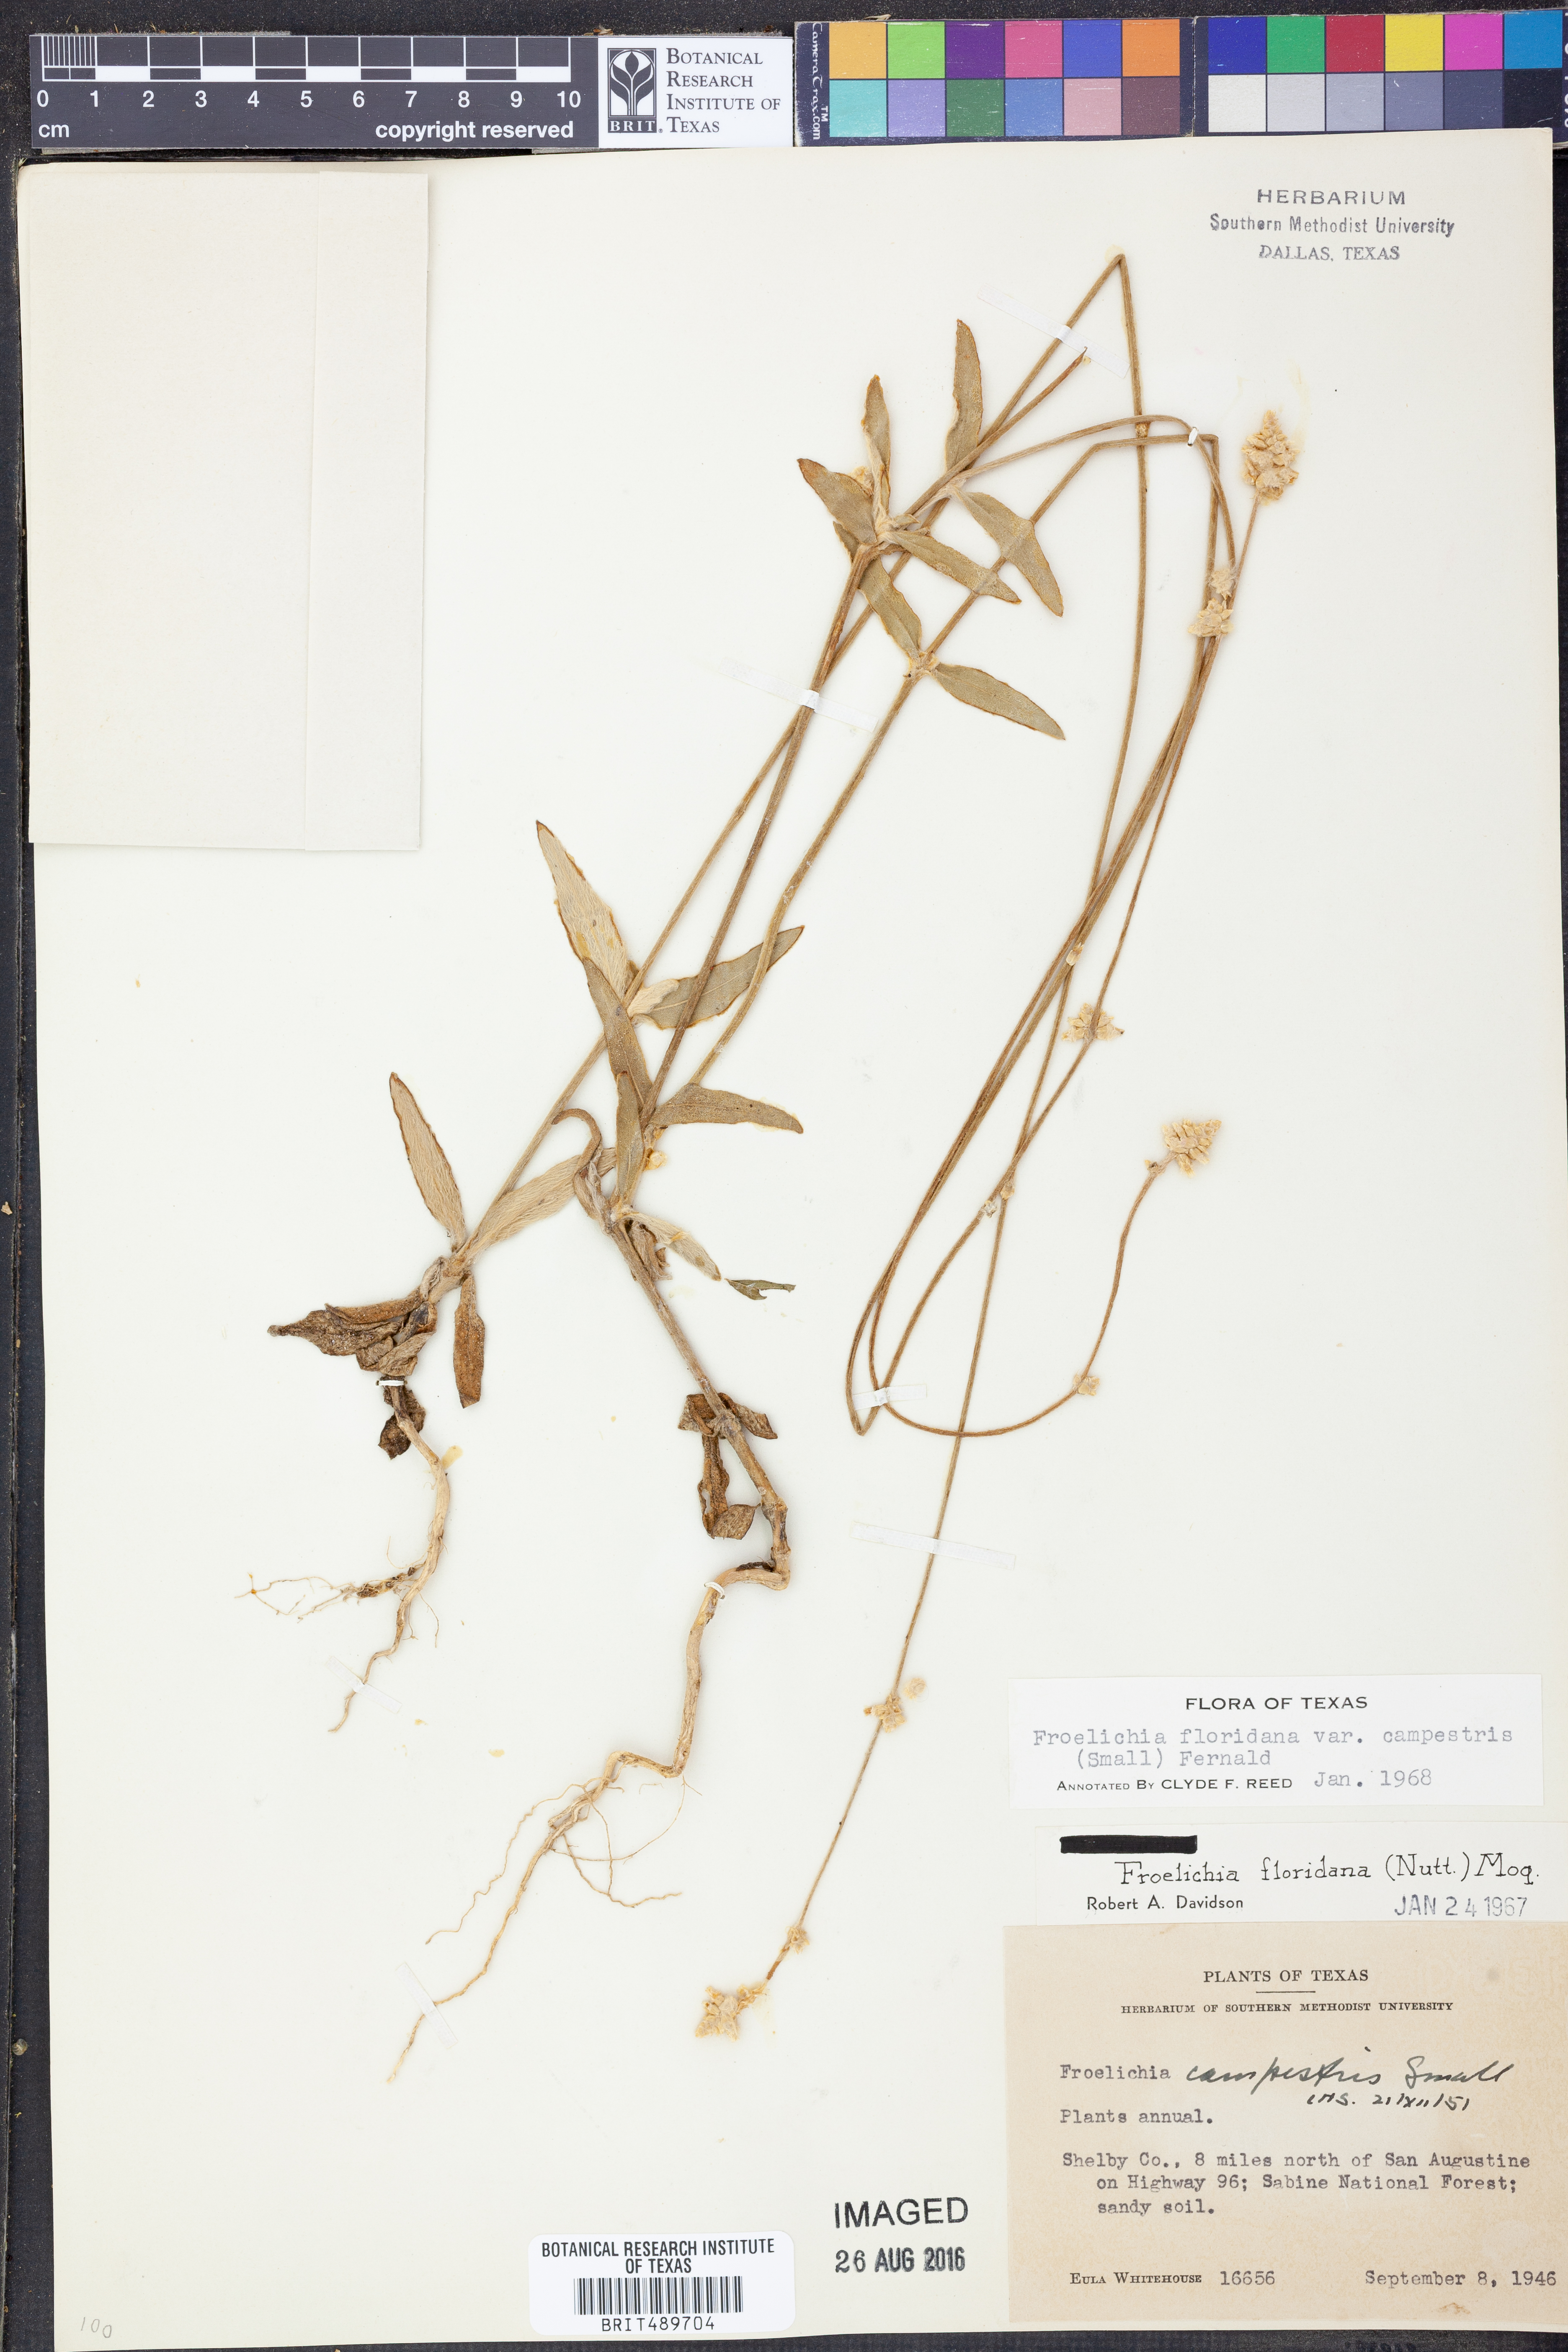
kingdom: Plantae
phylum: Tracheophyta
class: Magnoliopsida
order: Caryophyllales
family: Amaranthaceae
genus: Froelichia
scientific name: Froelichia floridana
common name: Florida snake-cotton
